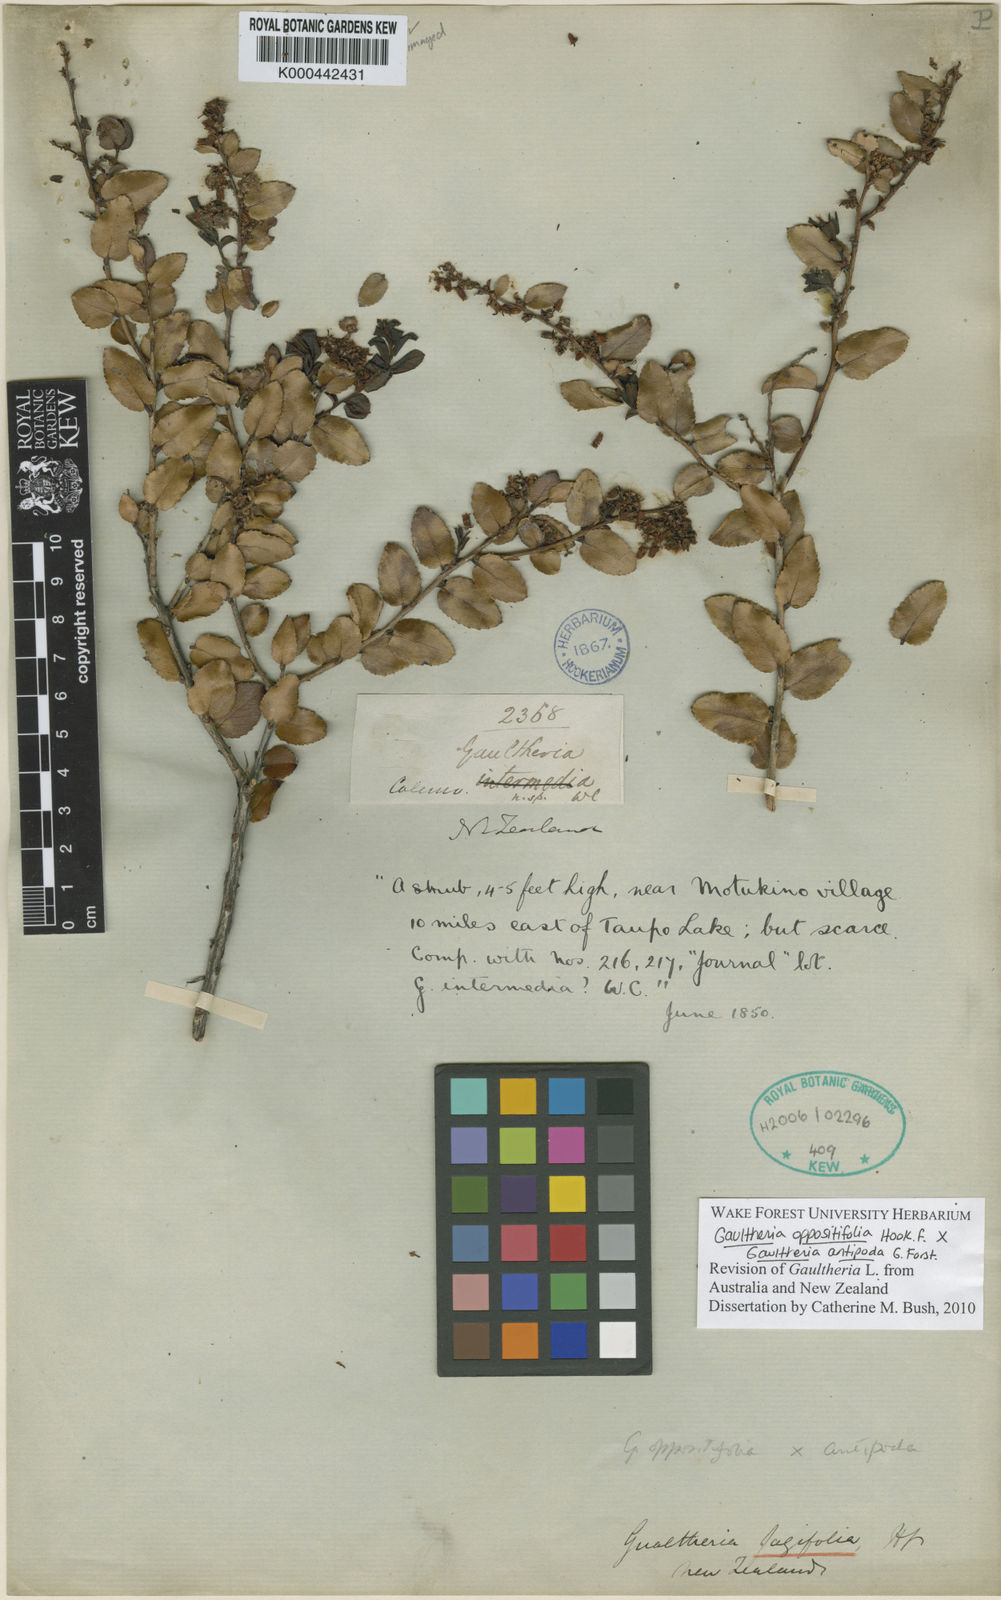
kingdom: Plantae
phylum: Tracheophyta
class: Magnoliopsida
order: Ericales
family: Ericaceae
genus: Gaultheria
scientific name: Gaultheria oppositifolia
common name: Snowberry
